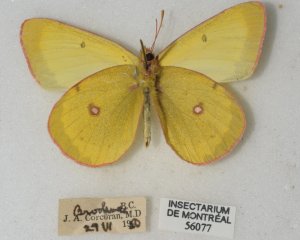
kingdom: Animalia
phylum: Arthropoda
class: Insecta
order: Lepidoptera
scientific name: Lepidoptera
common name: Butterflies
